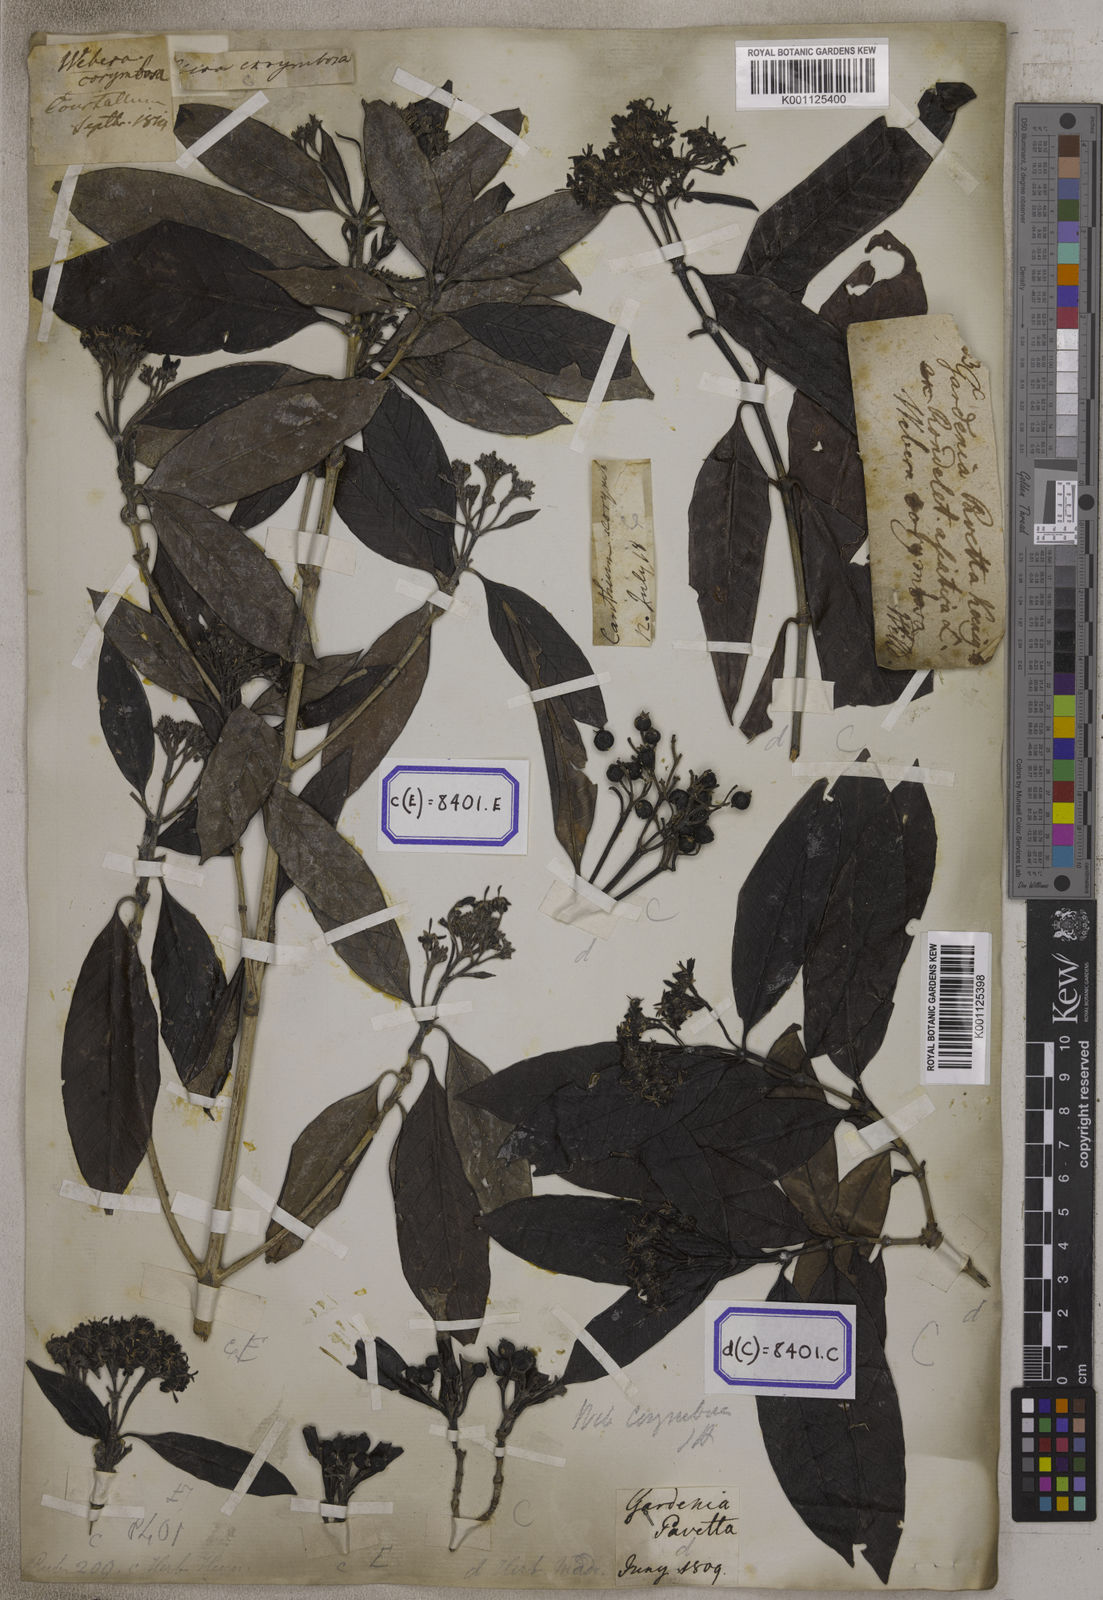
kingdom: Plantae
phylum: Tracheophyta
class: Magnoliopsida
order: Gentianales
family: Rubiaceae
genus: Tarenna
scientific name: Tarenna asiatica
